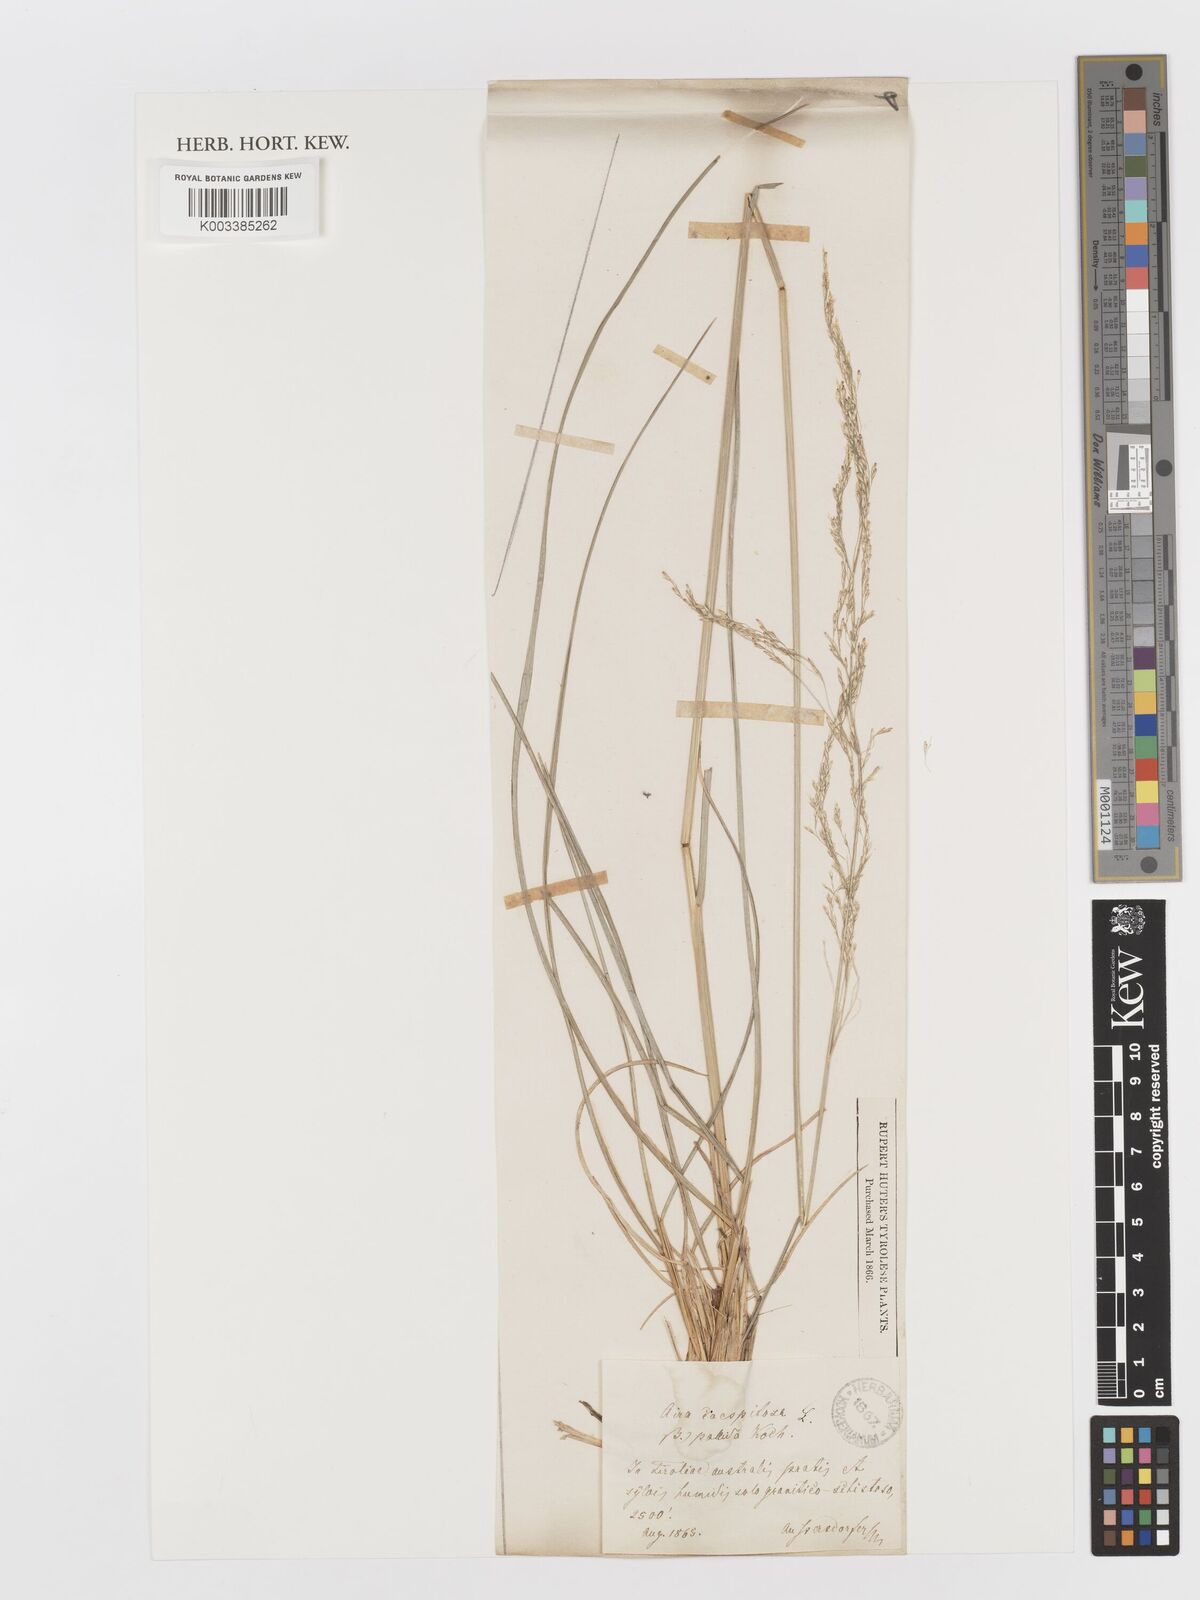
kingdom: Plantae
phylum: Tracheophyta
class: Liliopsida
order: Poales
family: Poaceae
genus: Deschampsia
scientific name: Deschampsia cespitosa
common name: Tufted hair-grass
